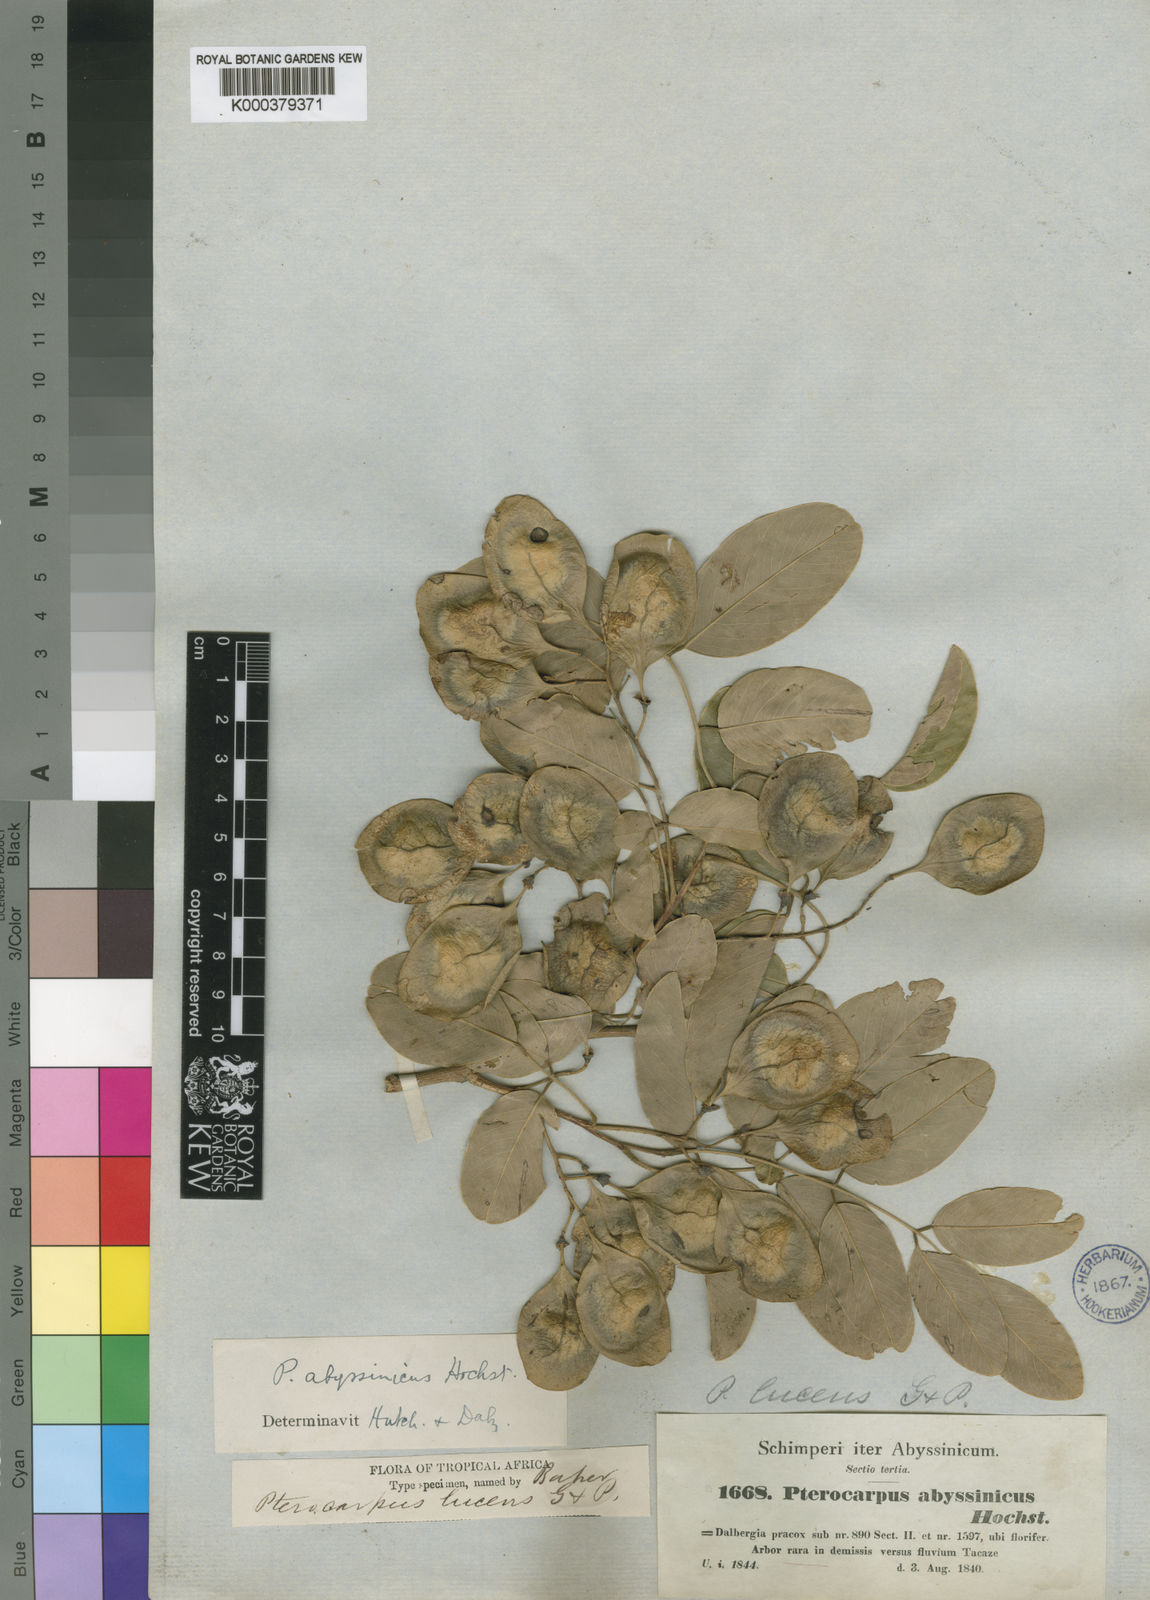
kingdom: Plantae
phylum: Tracheophyta
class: Magnoliopsida
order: Fabales
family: Fabaceae
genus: Pterocarpus
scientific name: Pterocarpus
